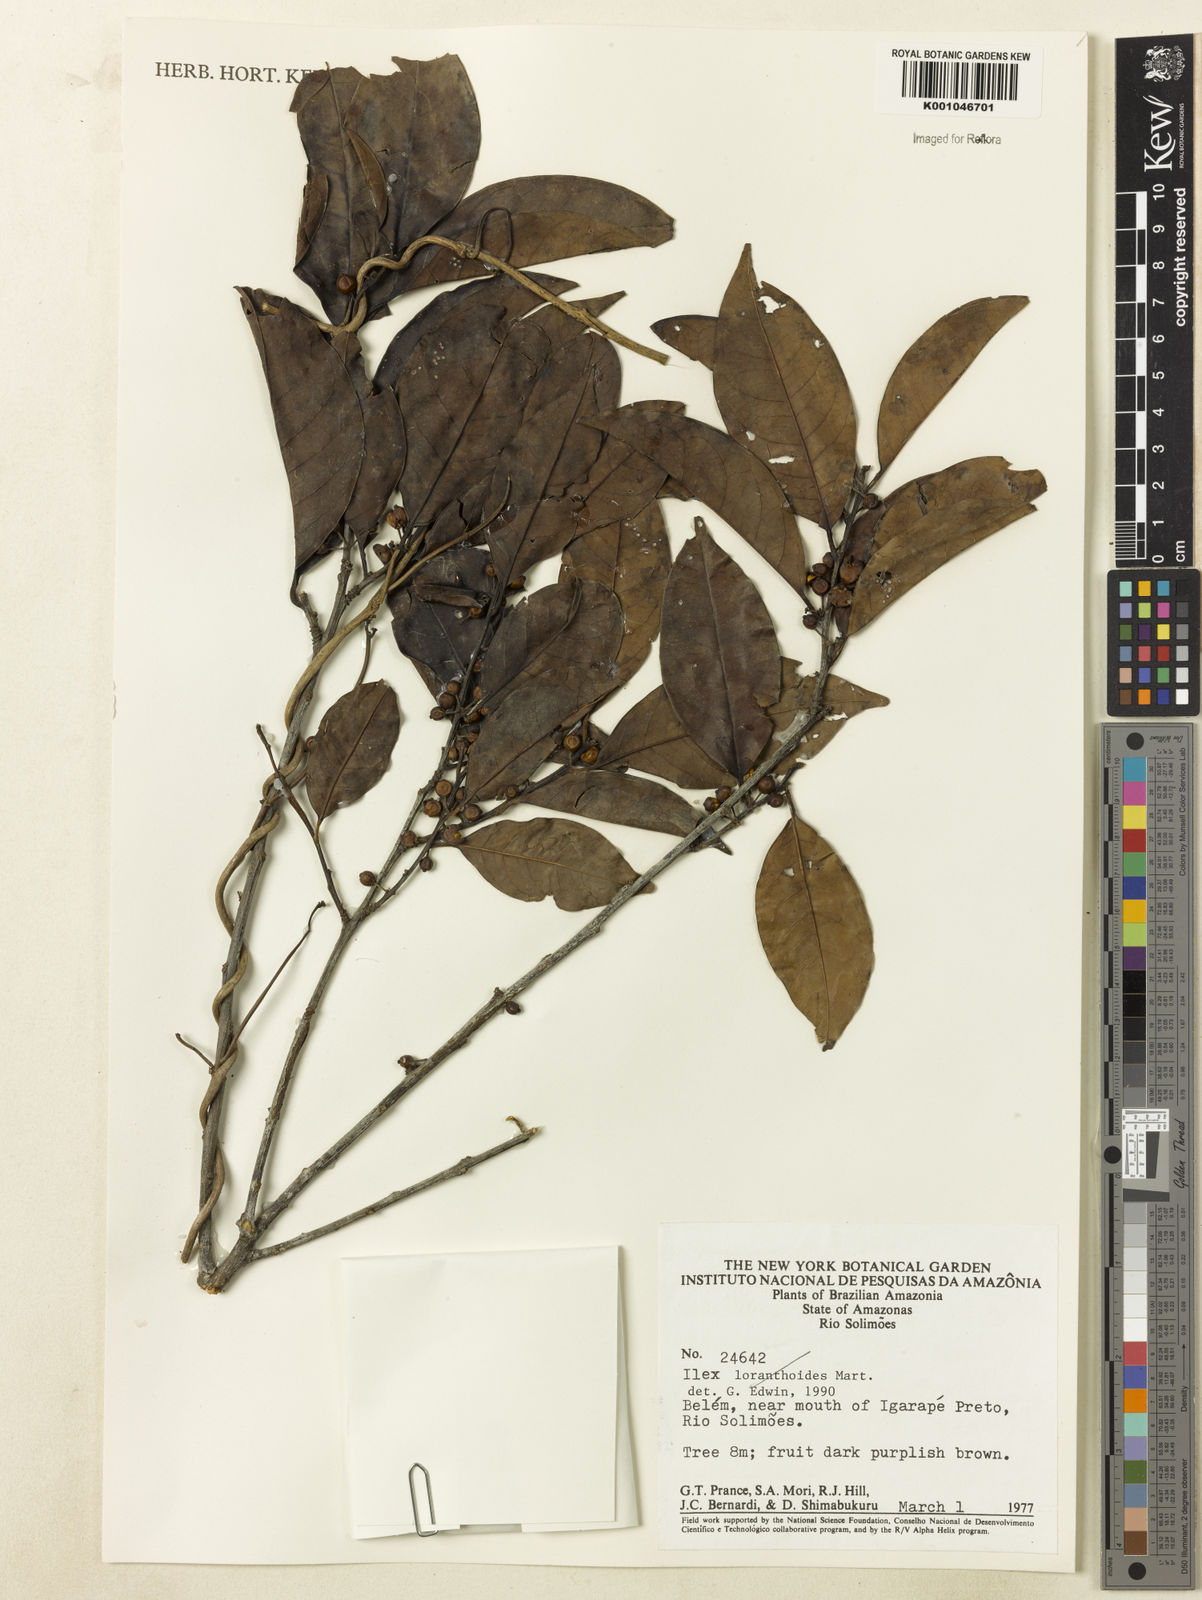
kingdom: Plantae
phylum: Tracheophyta
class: Magnoliopsida
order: Aquifoliales
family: Aquifoliaceae
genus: Ilex
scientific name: Ilex inundata
